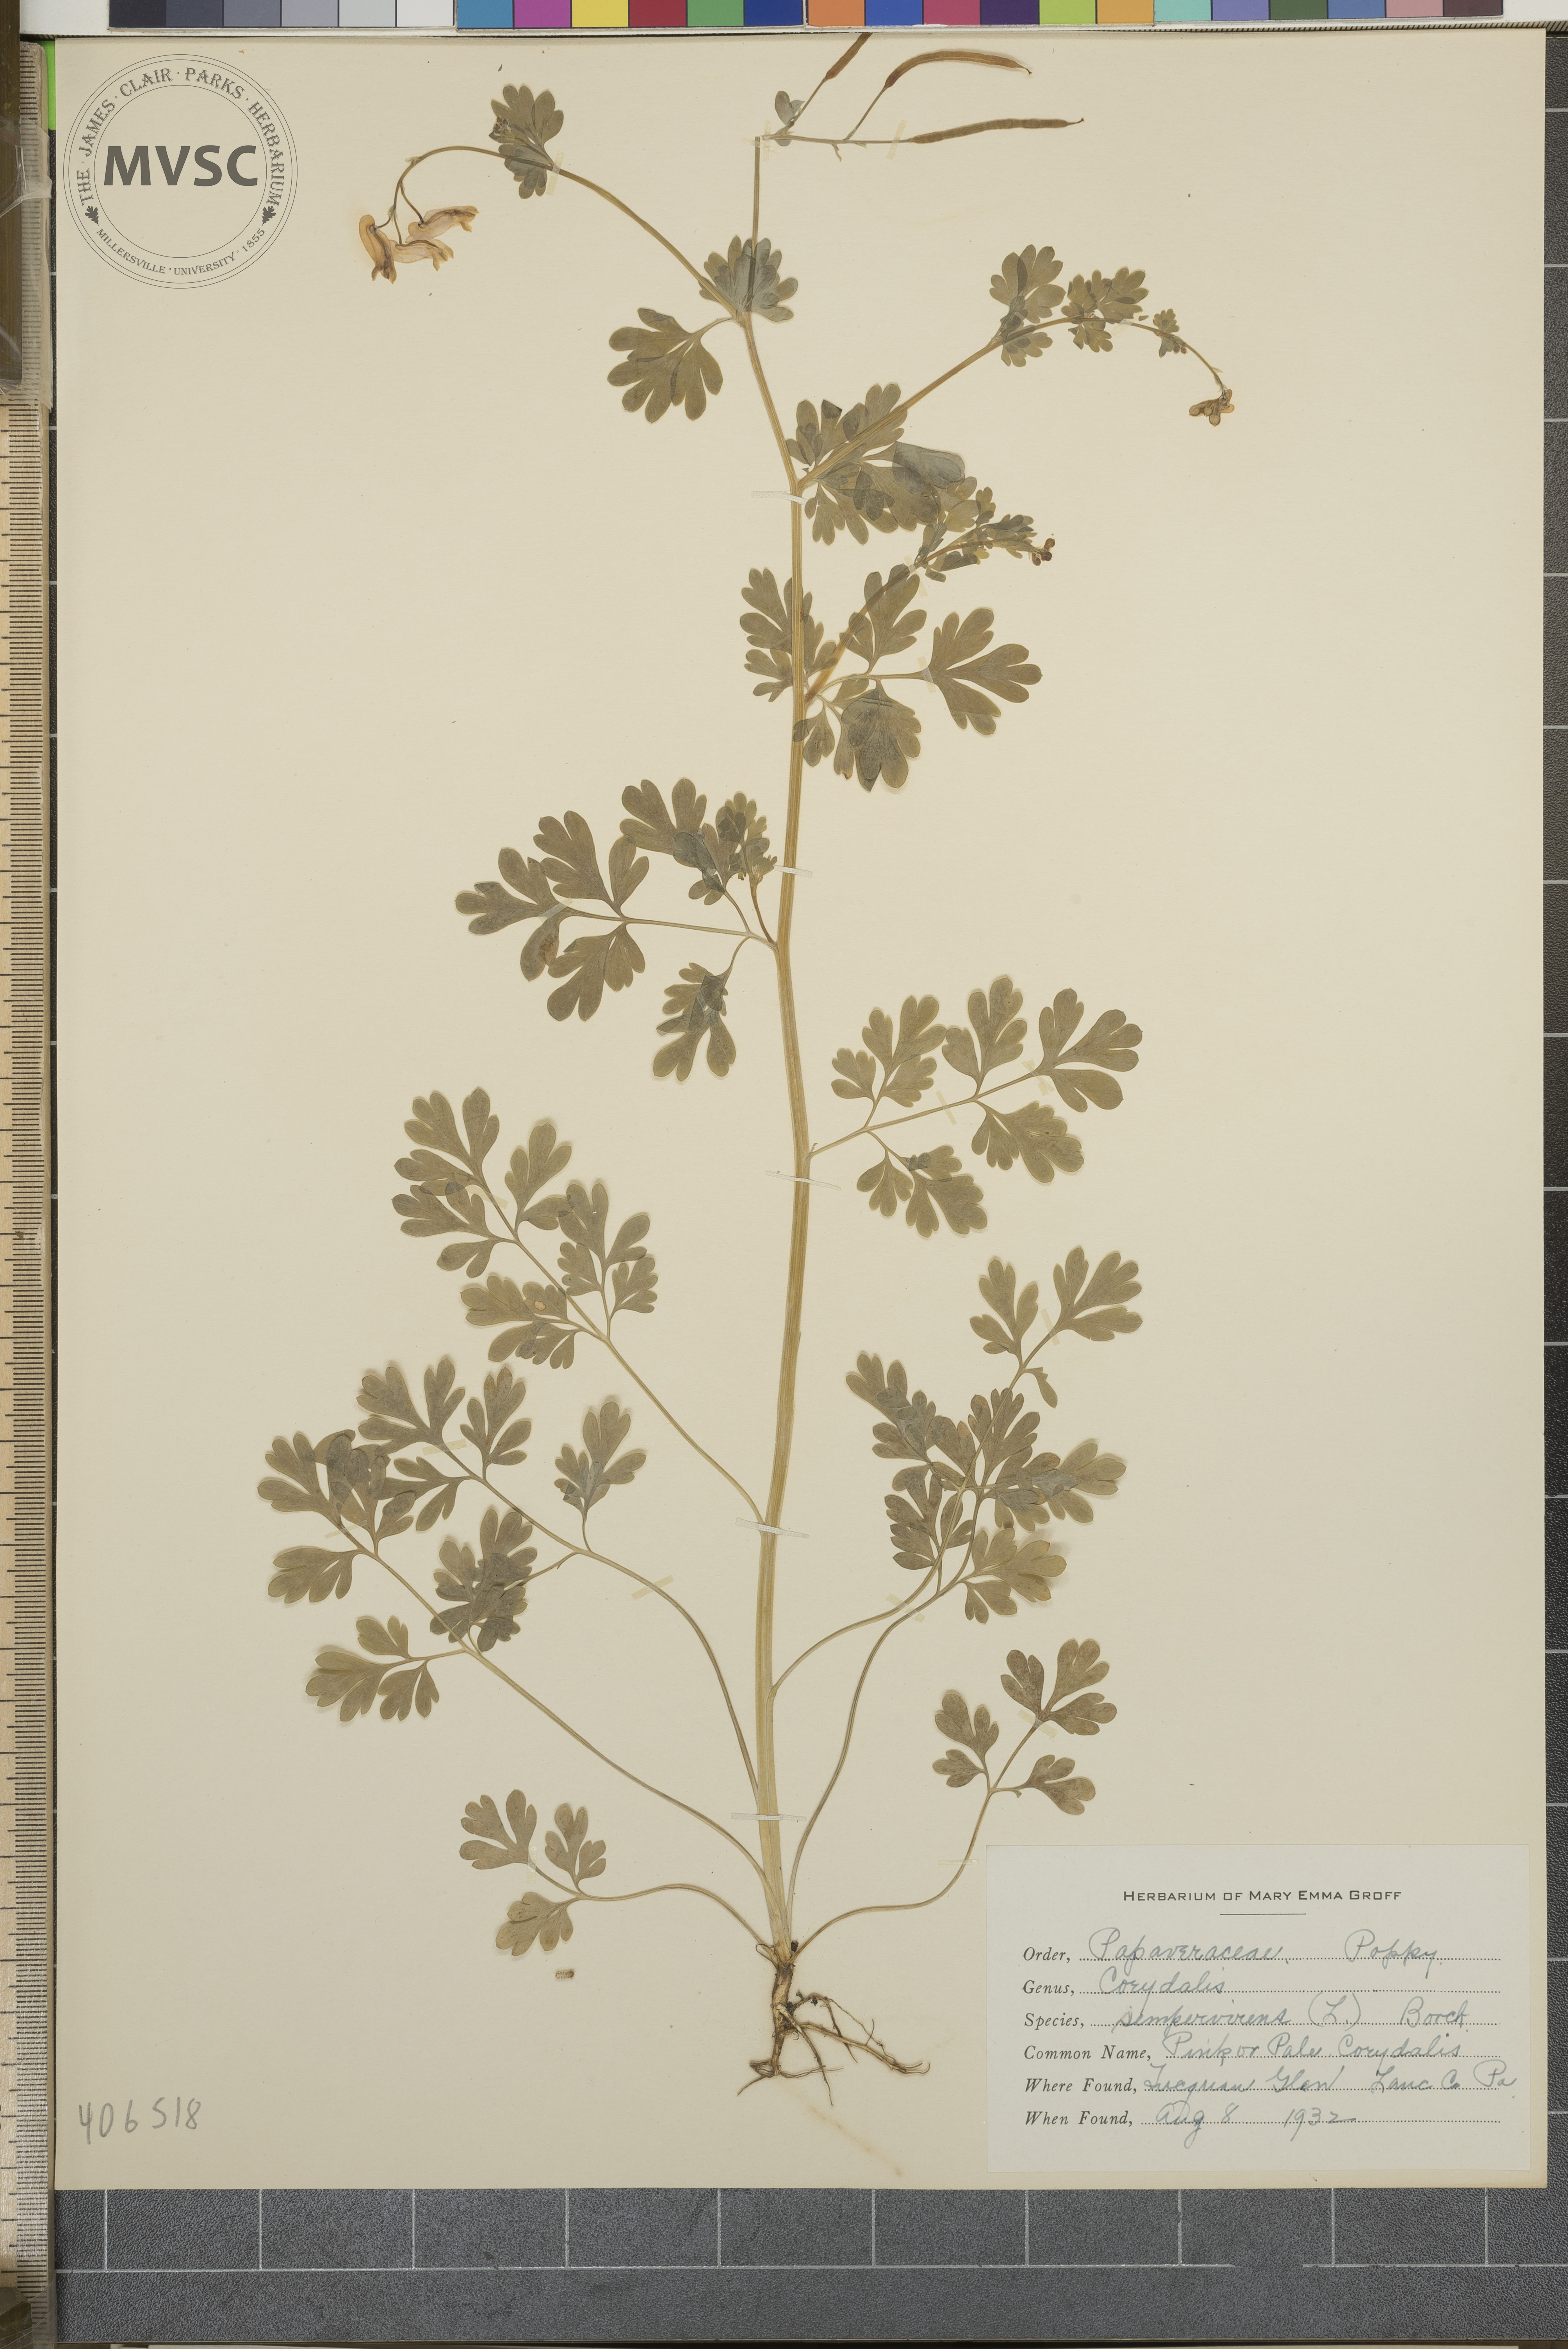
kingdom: Plantae
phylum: Tracheophyta
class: Magnoliopsida
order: Ranunculales
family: Papaveraceae
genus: Capnoides
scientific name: Capnoides sempervirens
